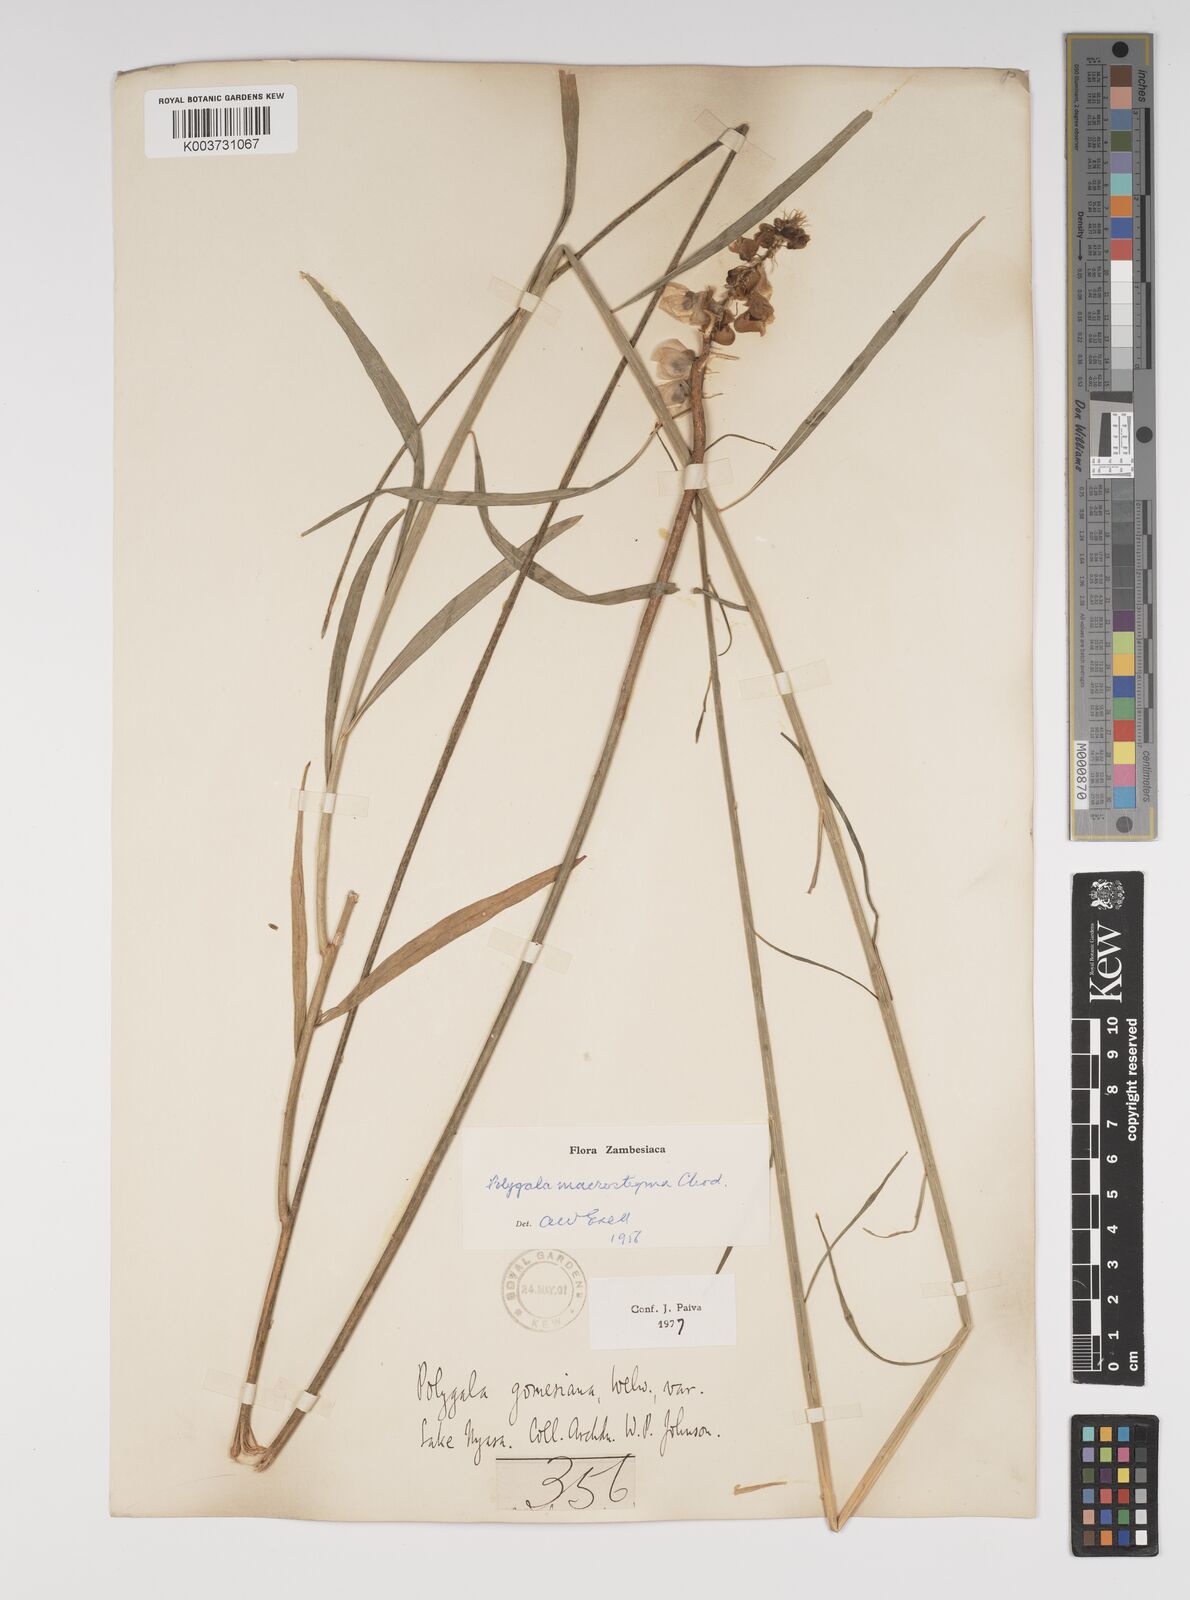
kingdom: Plantae
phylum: Tracheophyta
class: Magnoliopsida
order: Fabales
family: Polygalaceae
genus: Polygala
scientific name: Polygala macrostigma
